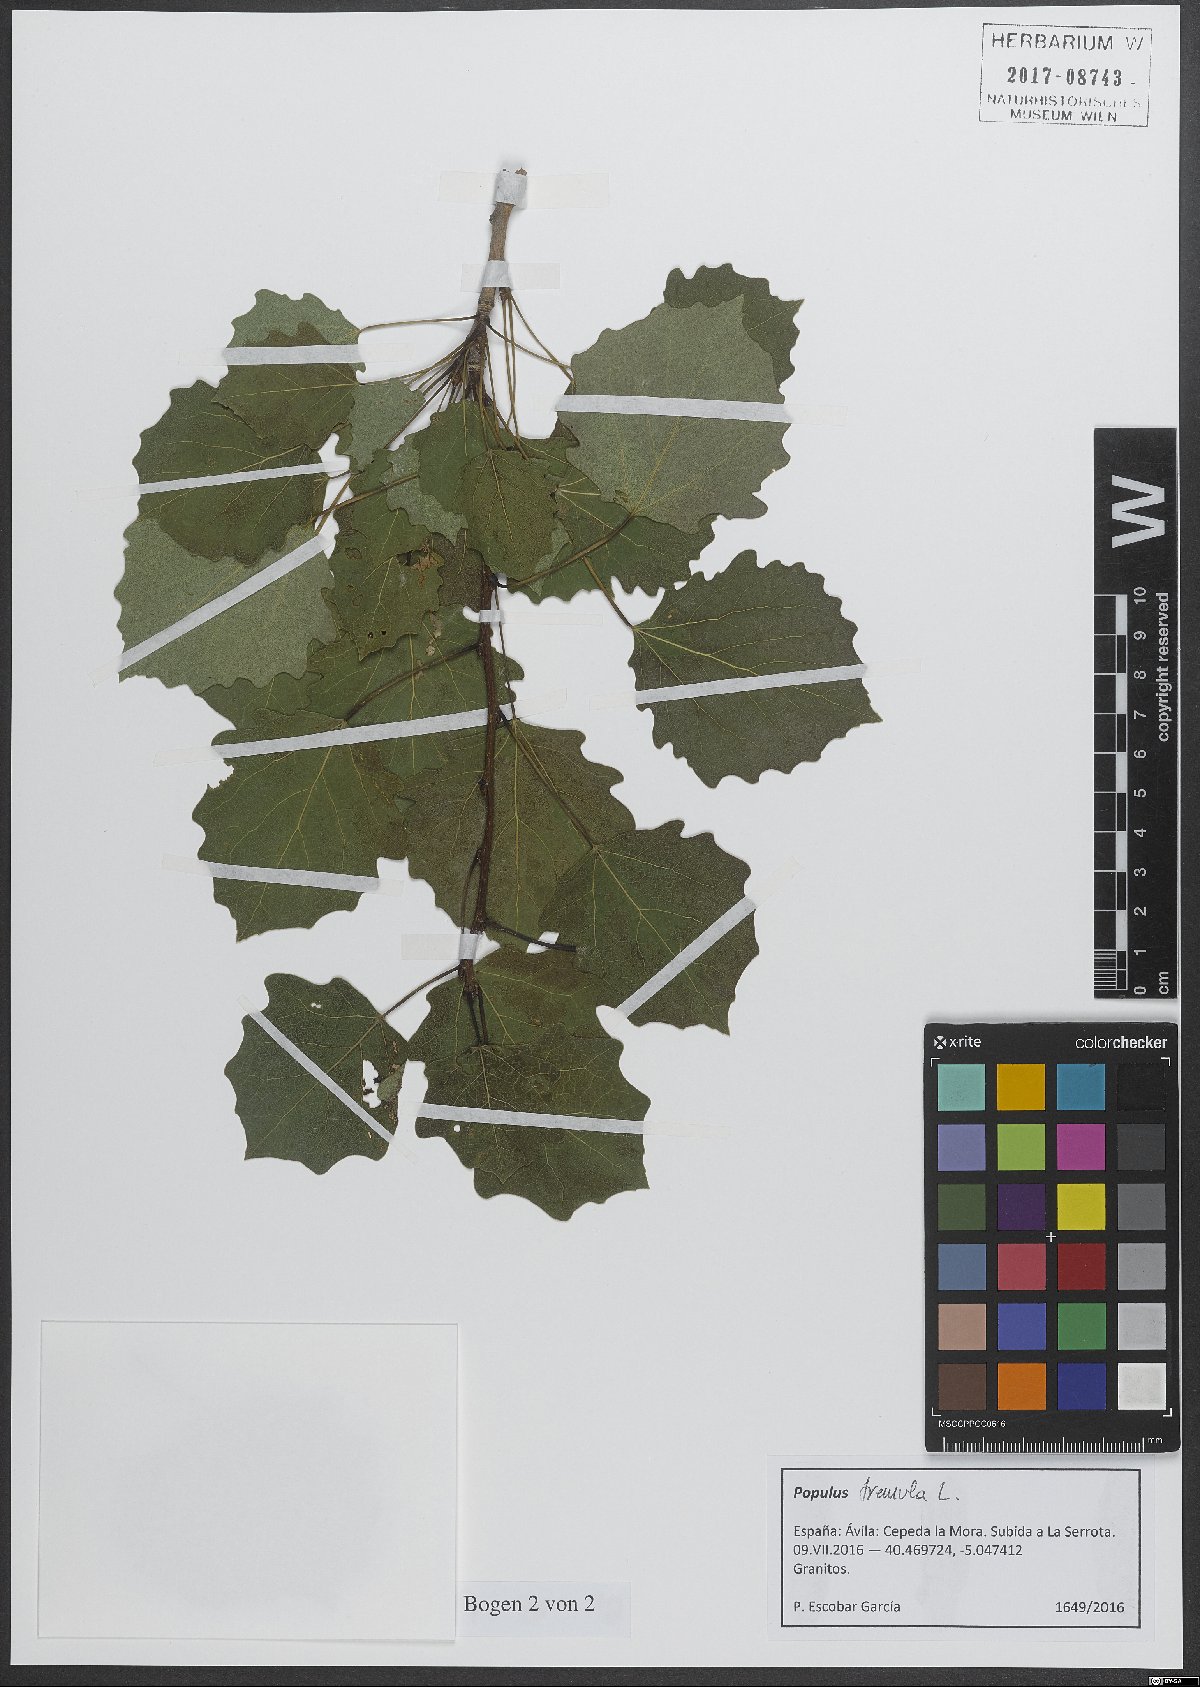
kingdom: Plantae
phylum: Tracheophyta
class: Magnoliopsida
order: Malpighiales
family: Salicaceae
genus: Populus
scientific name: Populus tremula
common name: European aspen
